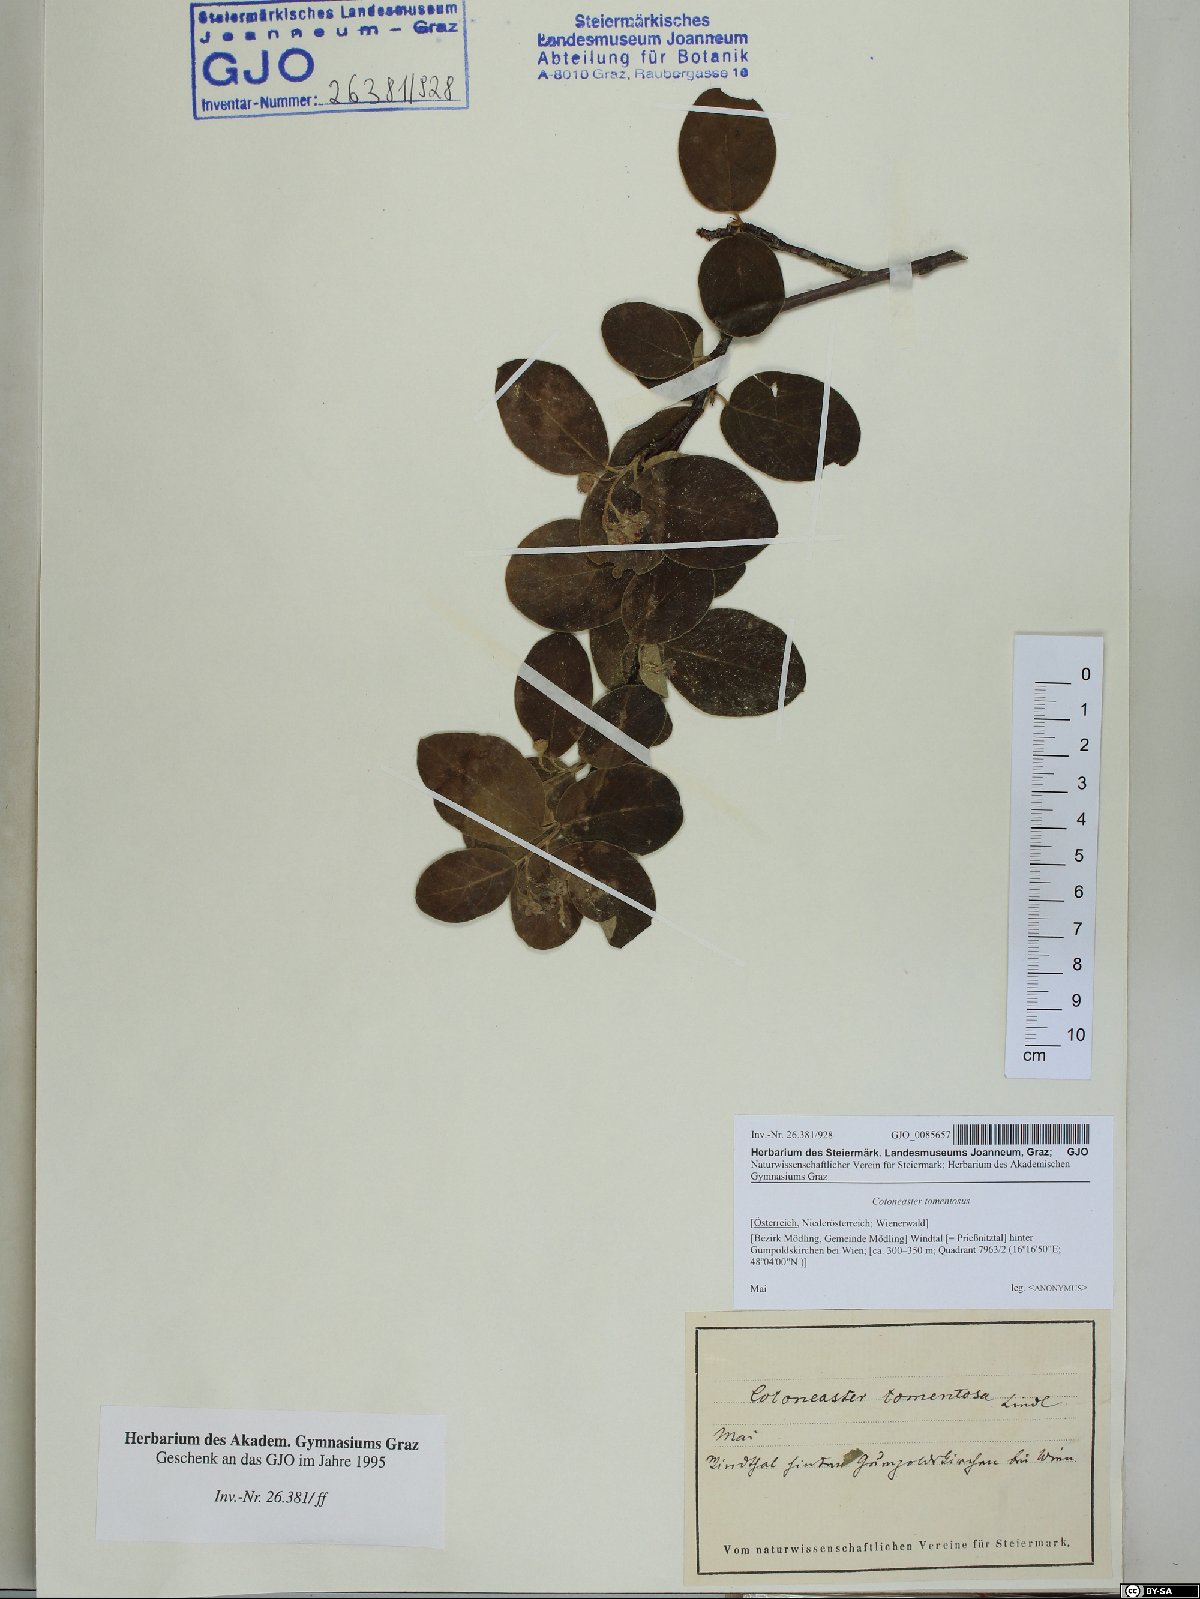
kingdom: Plantae
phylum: Tracheophyta
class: Magnoliopsida
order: Rosales
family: Rosaceae
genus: Cotoneaster
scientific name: Cotoneaster tomentosus
